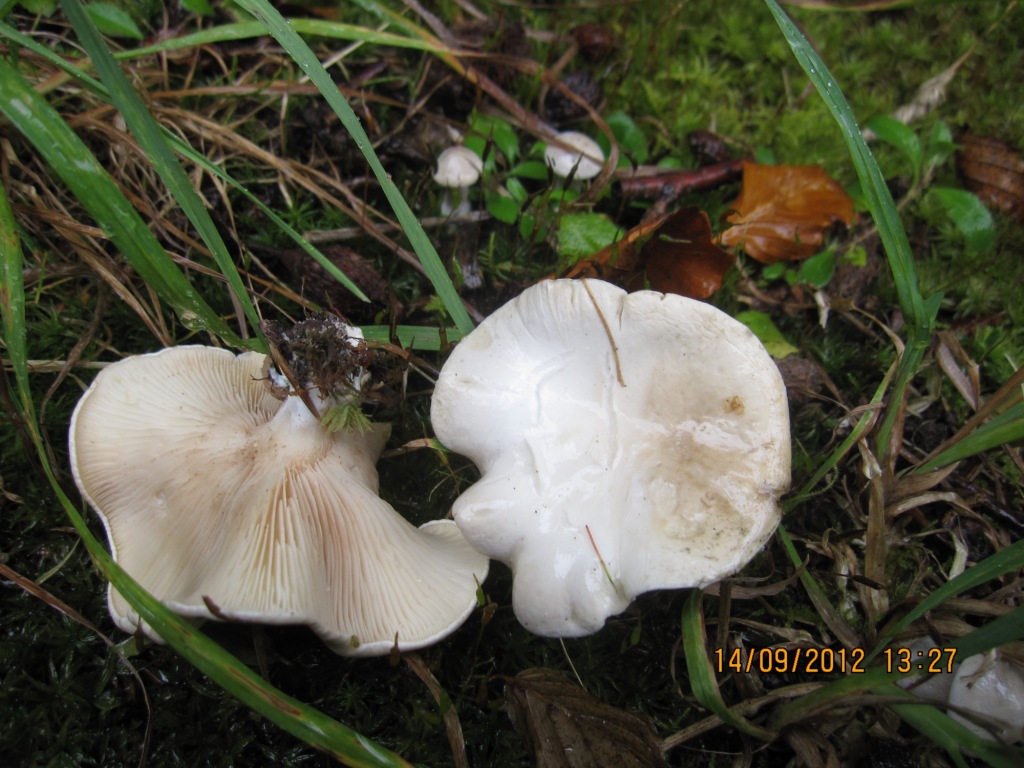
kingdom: Fungi
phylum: Basidiomycota
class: Agaricomycetes
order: Agaricales
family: Entolomataceae
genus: Clitopilus
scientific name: Clitopilus prunulus
